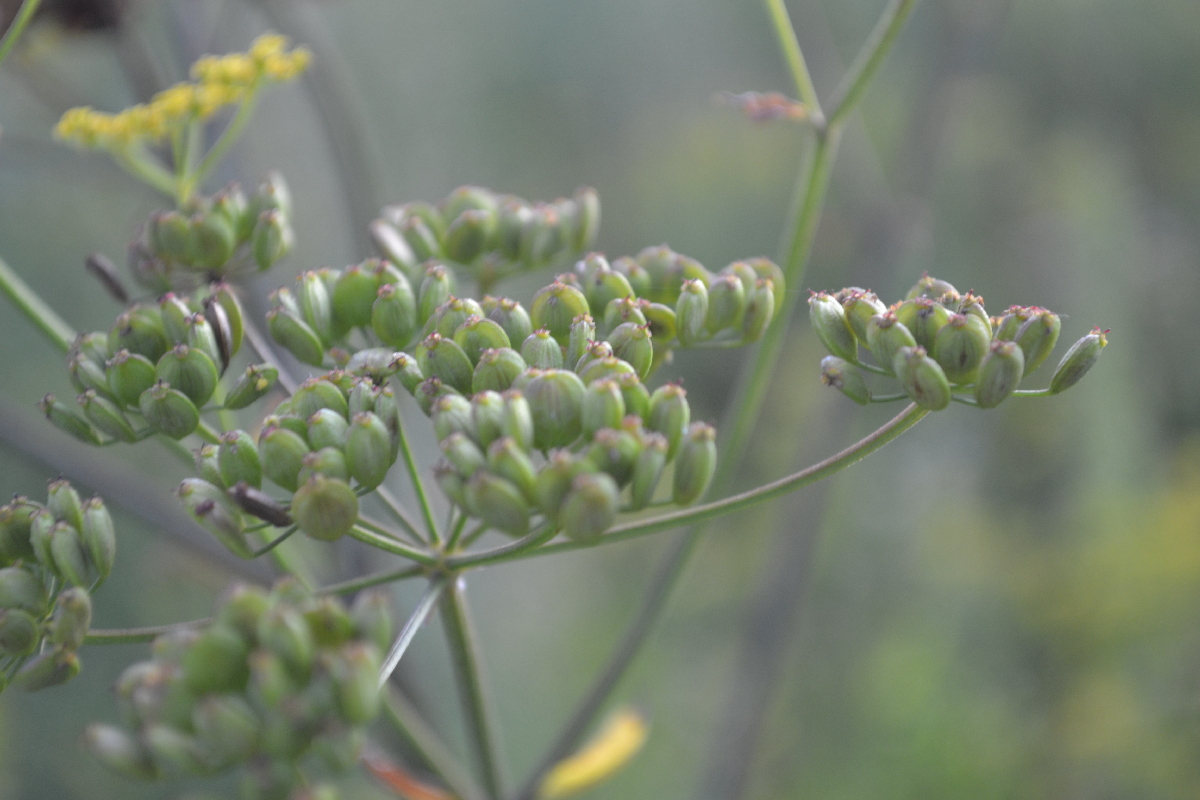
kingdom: Plantae
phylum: Tracheophyta
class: Magnoliopsida
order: Apiales
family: Apiaceae
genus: Pastinaca
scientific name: Pastinaca sativa
